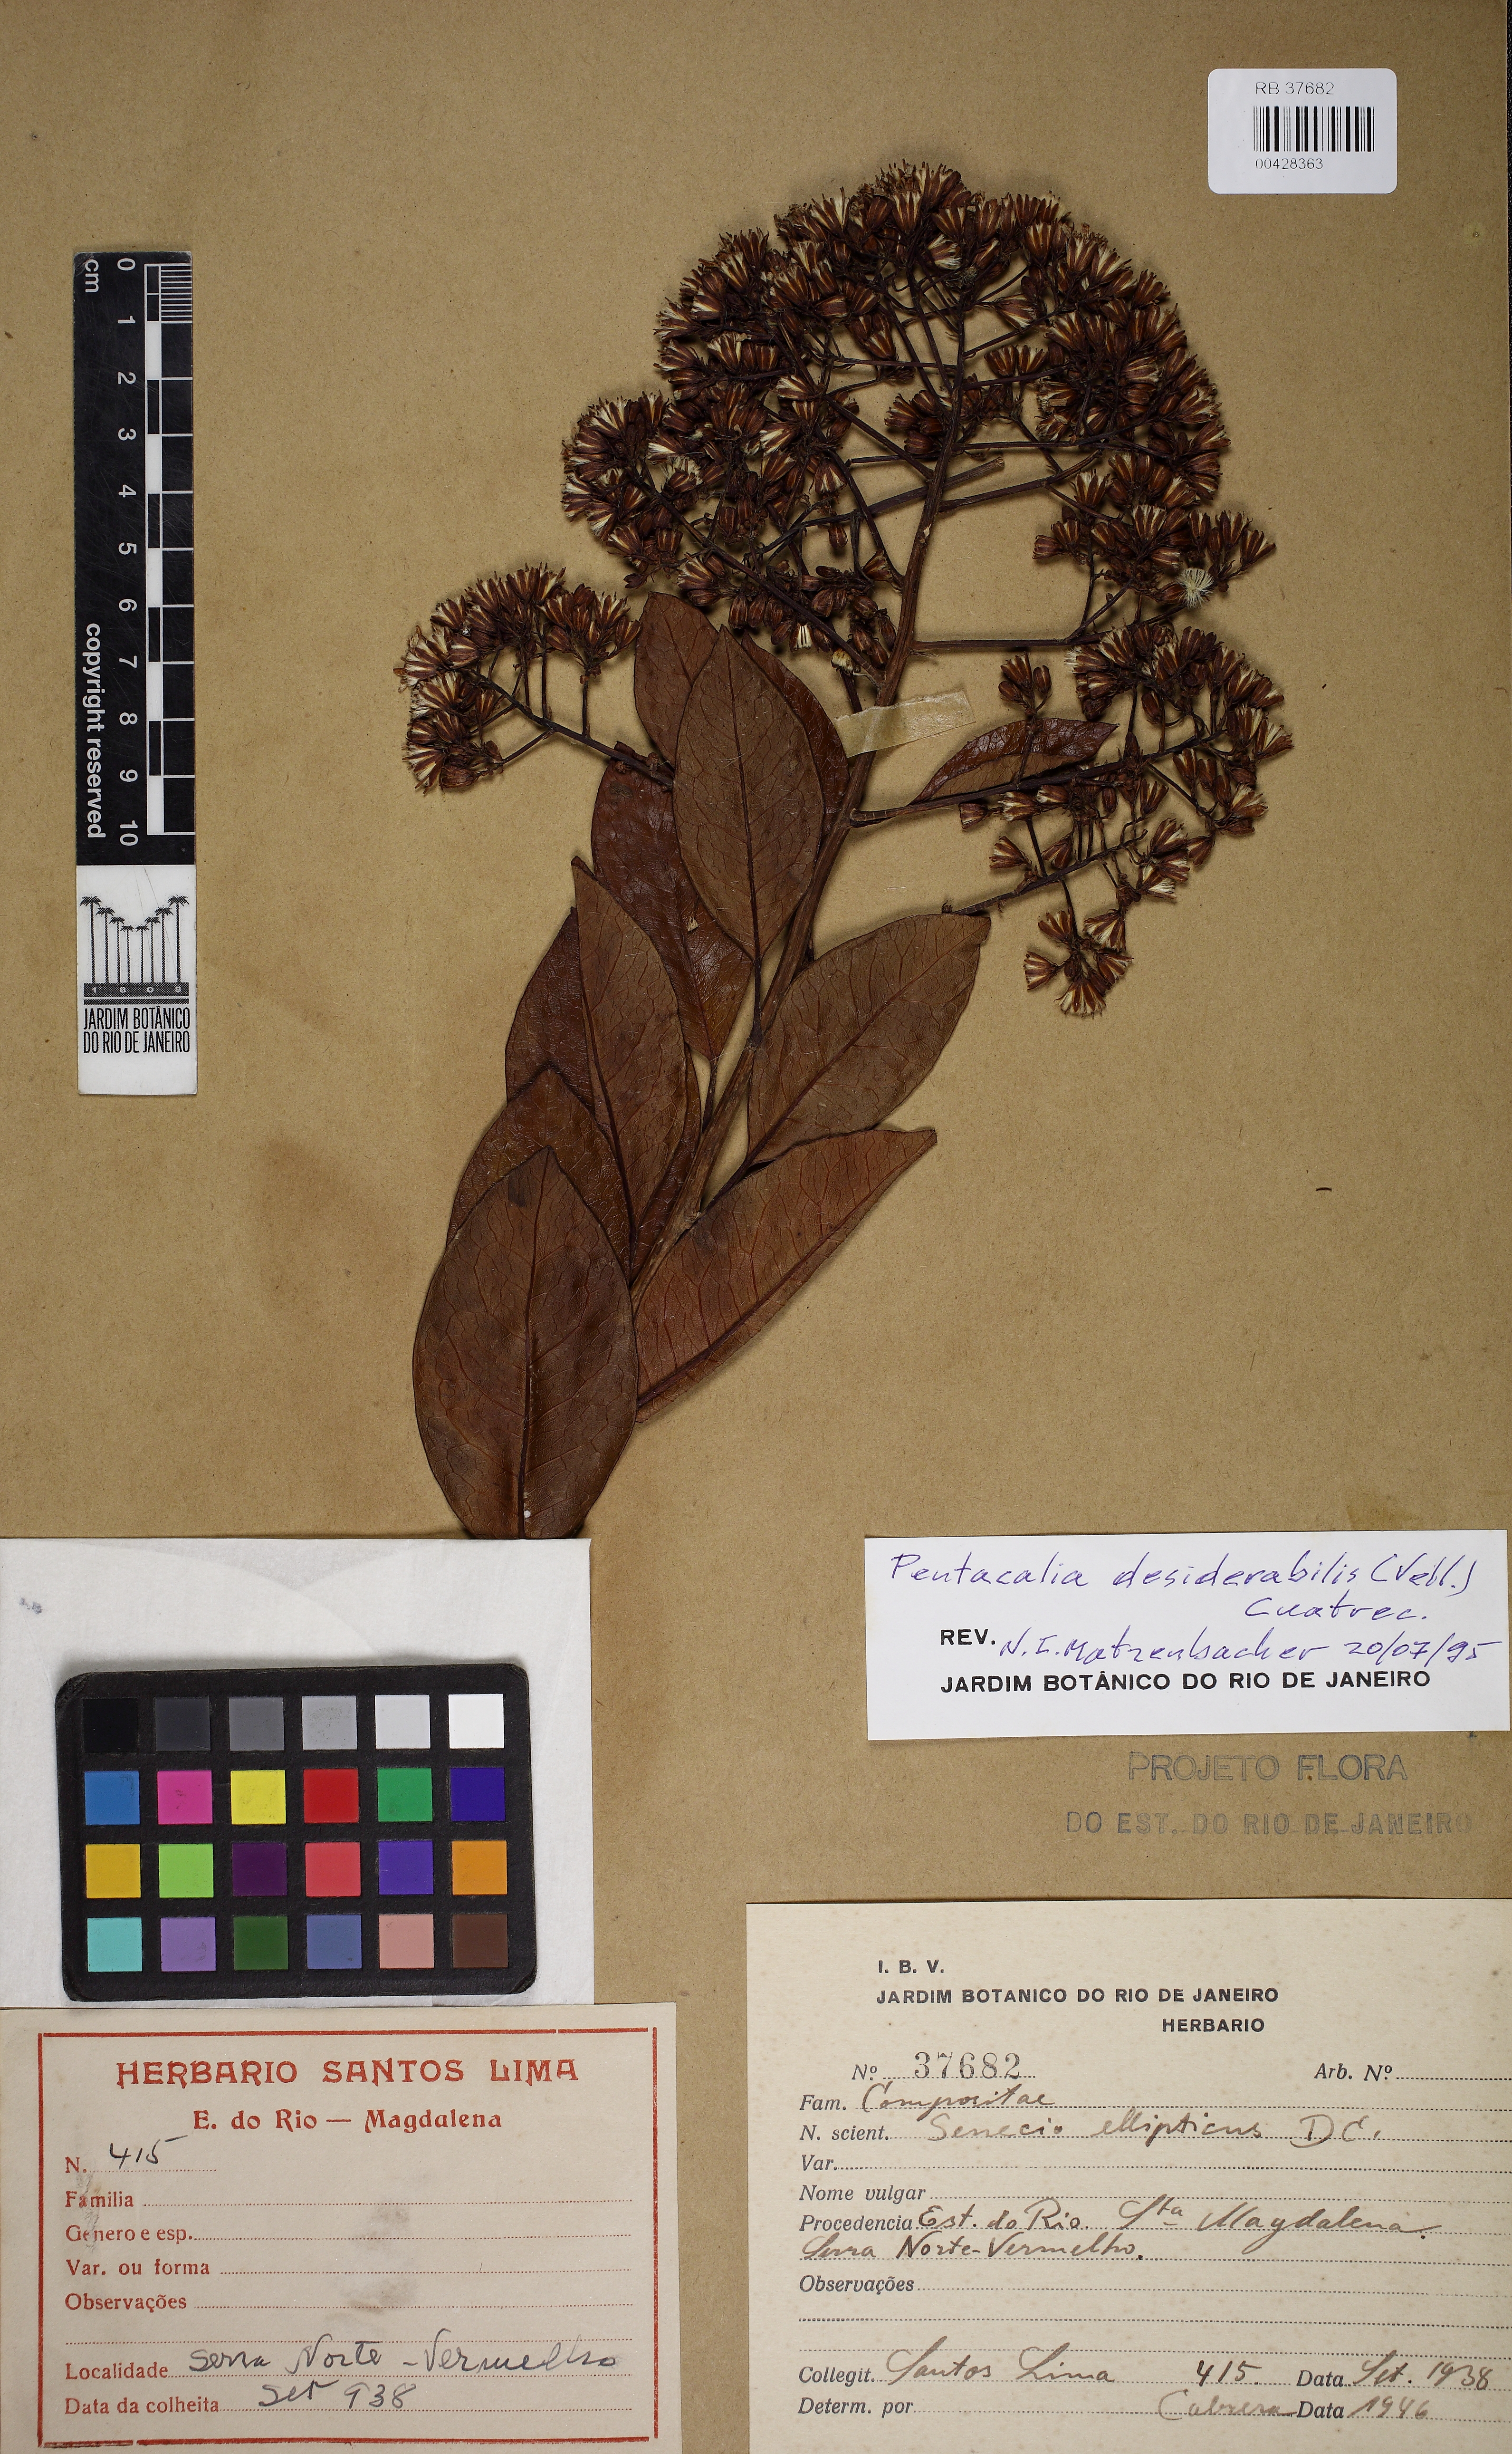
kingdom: Plantae
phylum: Tracheophyta
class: Magnoliopsida
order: Asterales
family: Asteraceae
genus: Pentacalia
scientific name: Pentacalia desiderabilis
